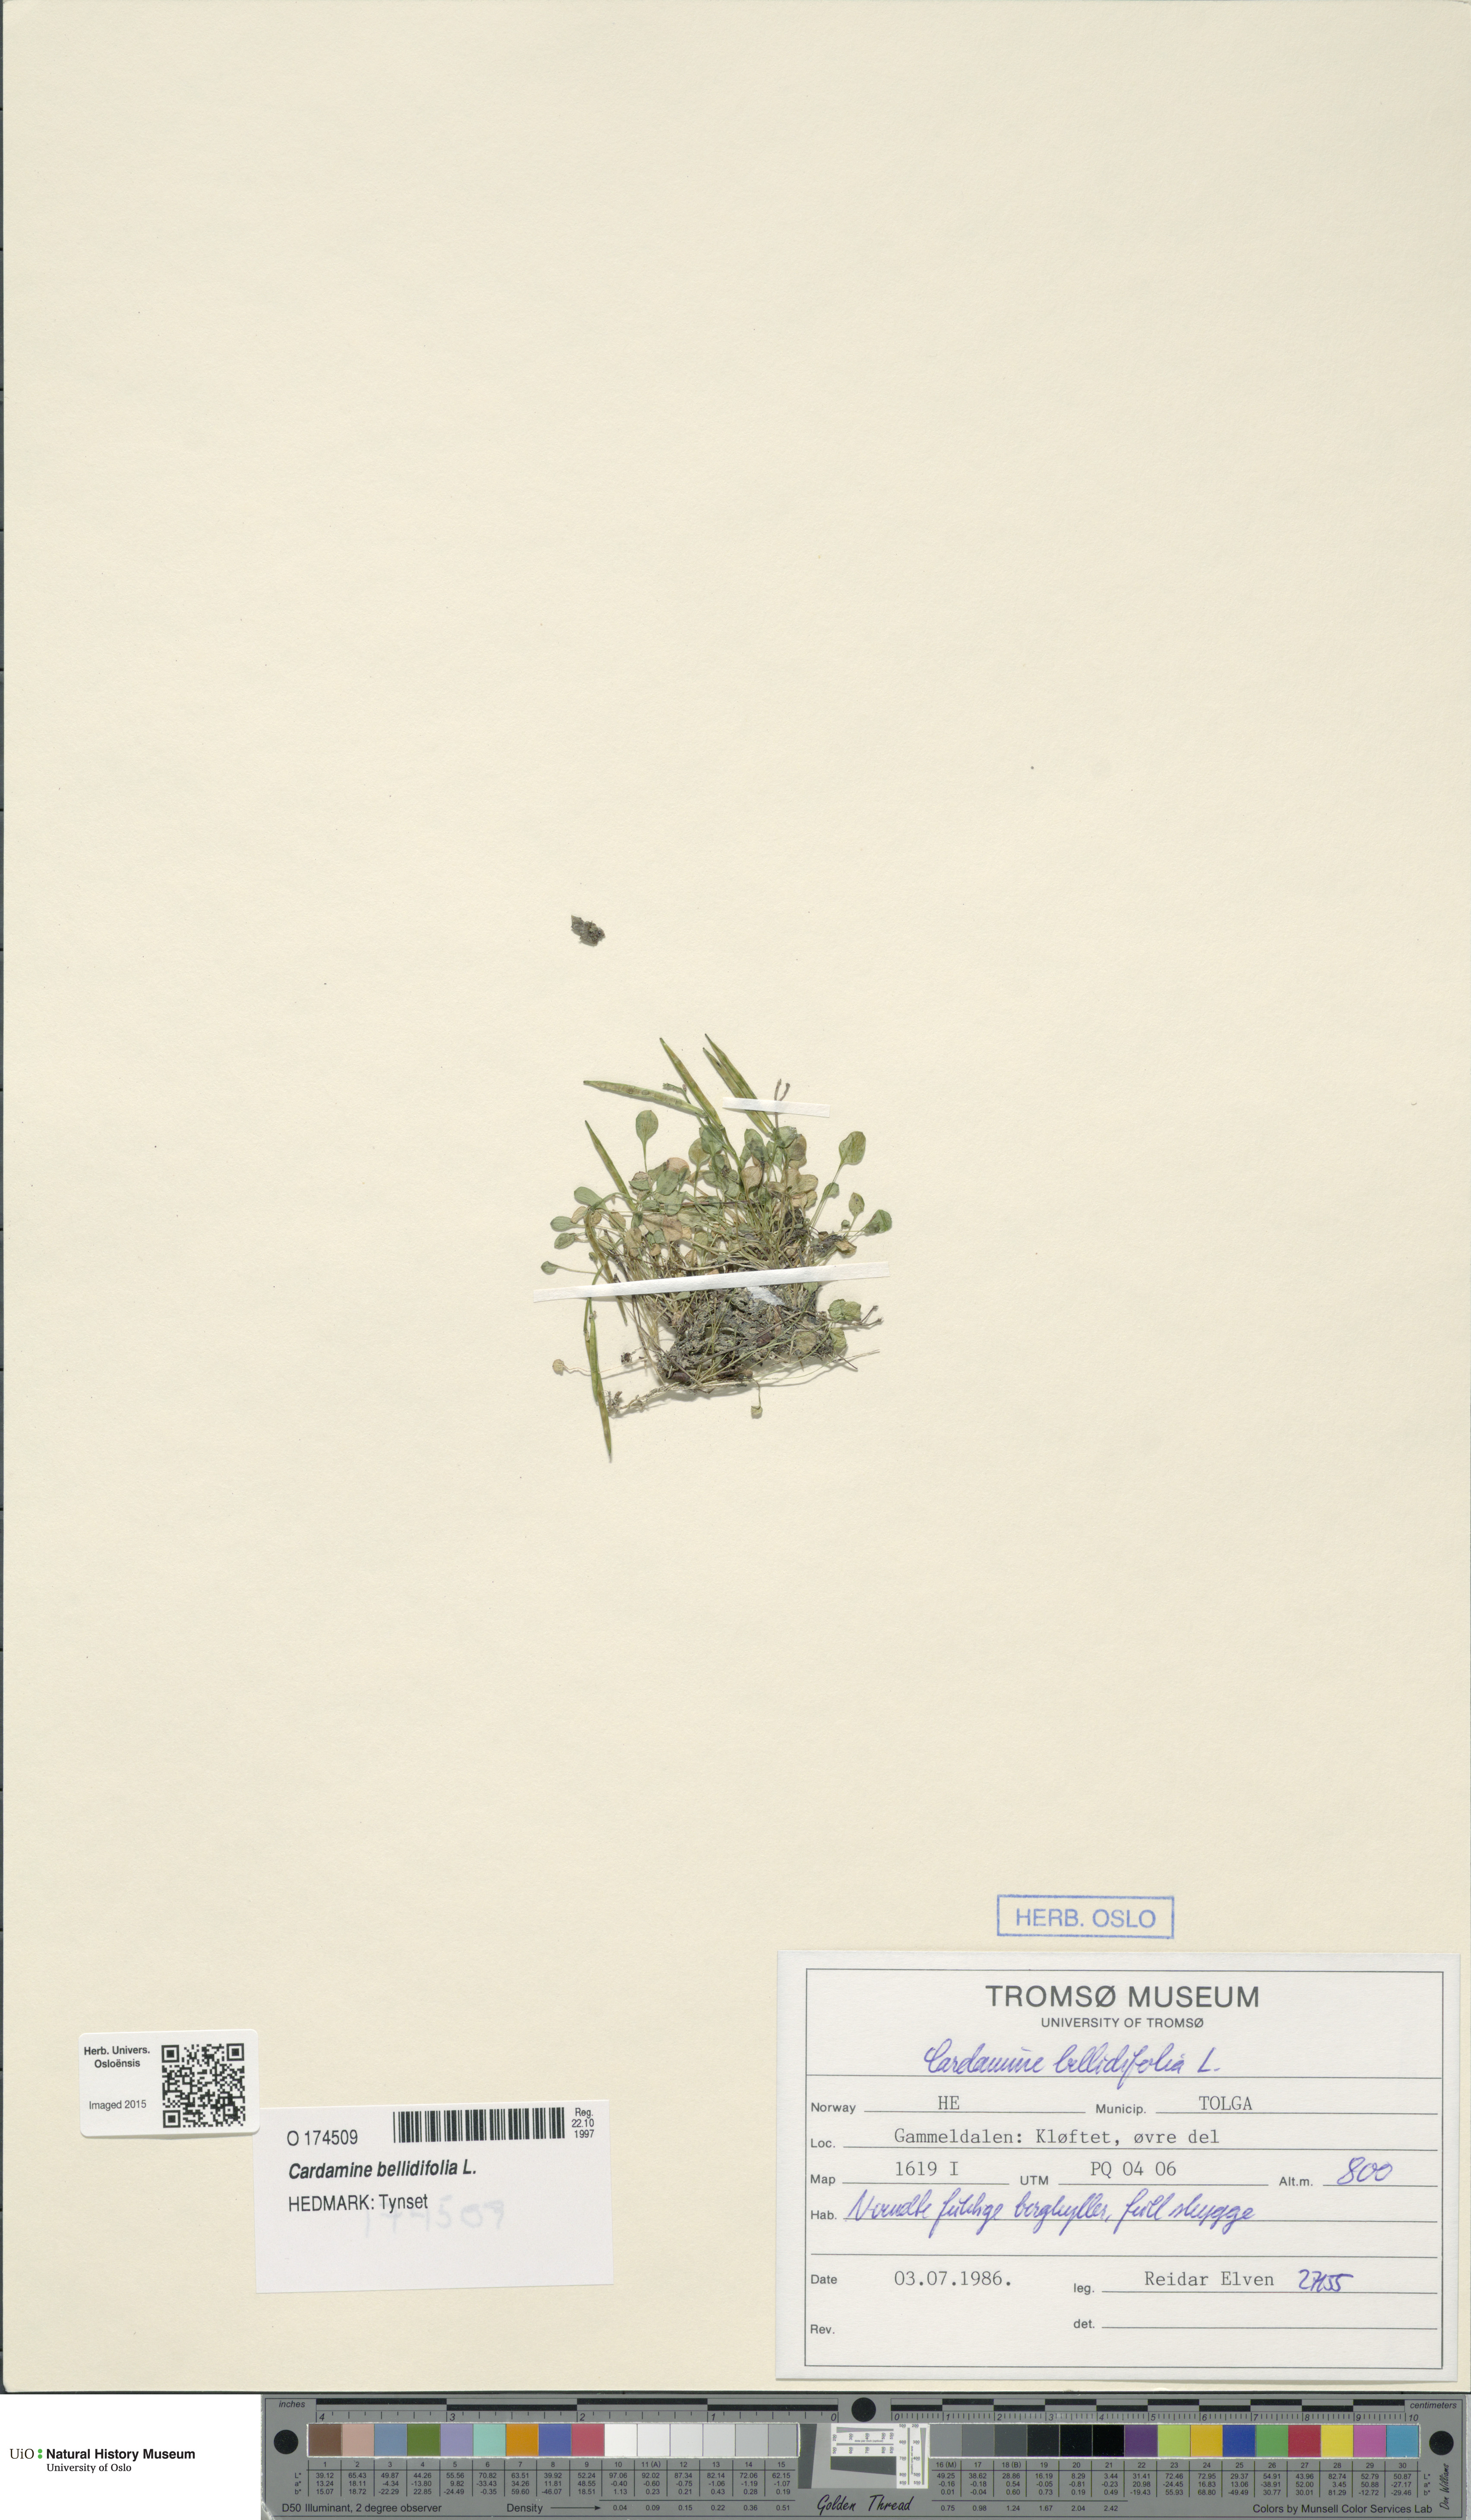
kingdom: Plantae
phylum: Tracheophyta
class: Magnoliopsida
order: Brassicales
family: Brassicaceae
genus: Cardamine
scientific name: Cardamine bellidifolia
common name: Alpine bittercress
